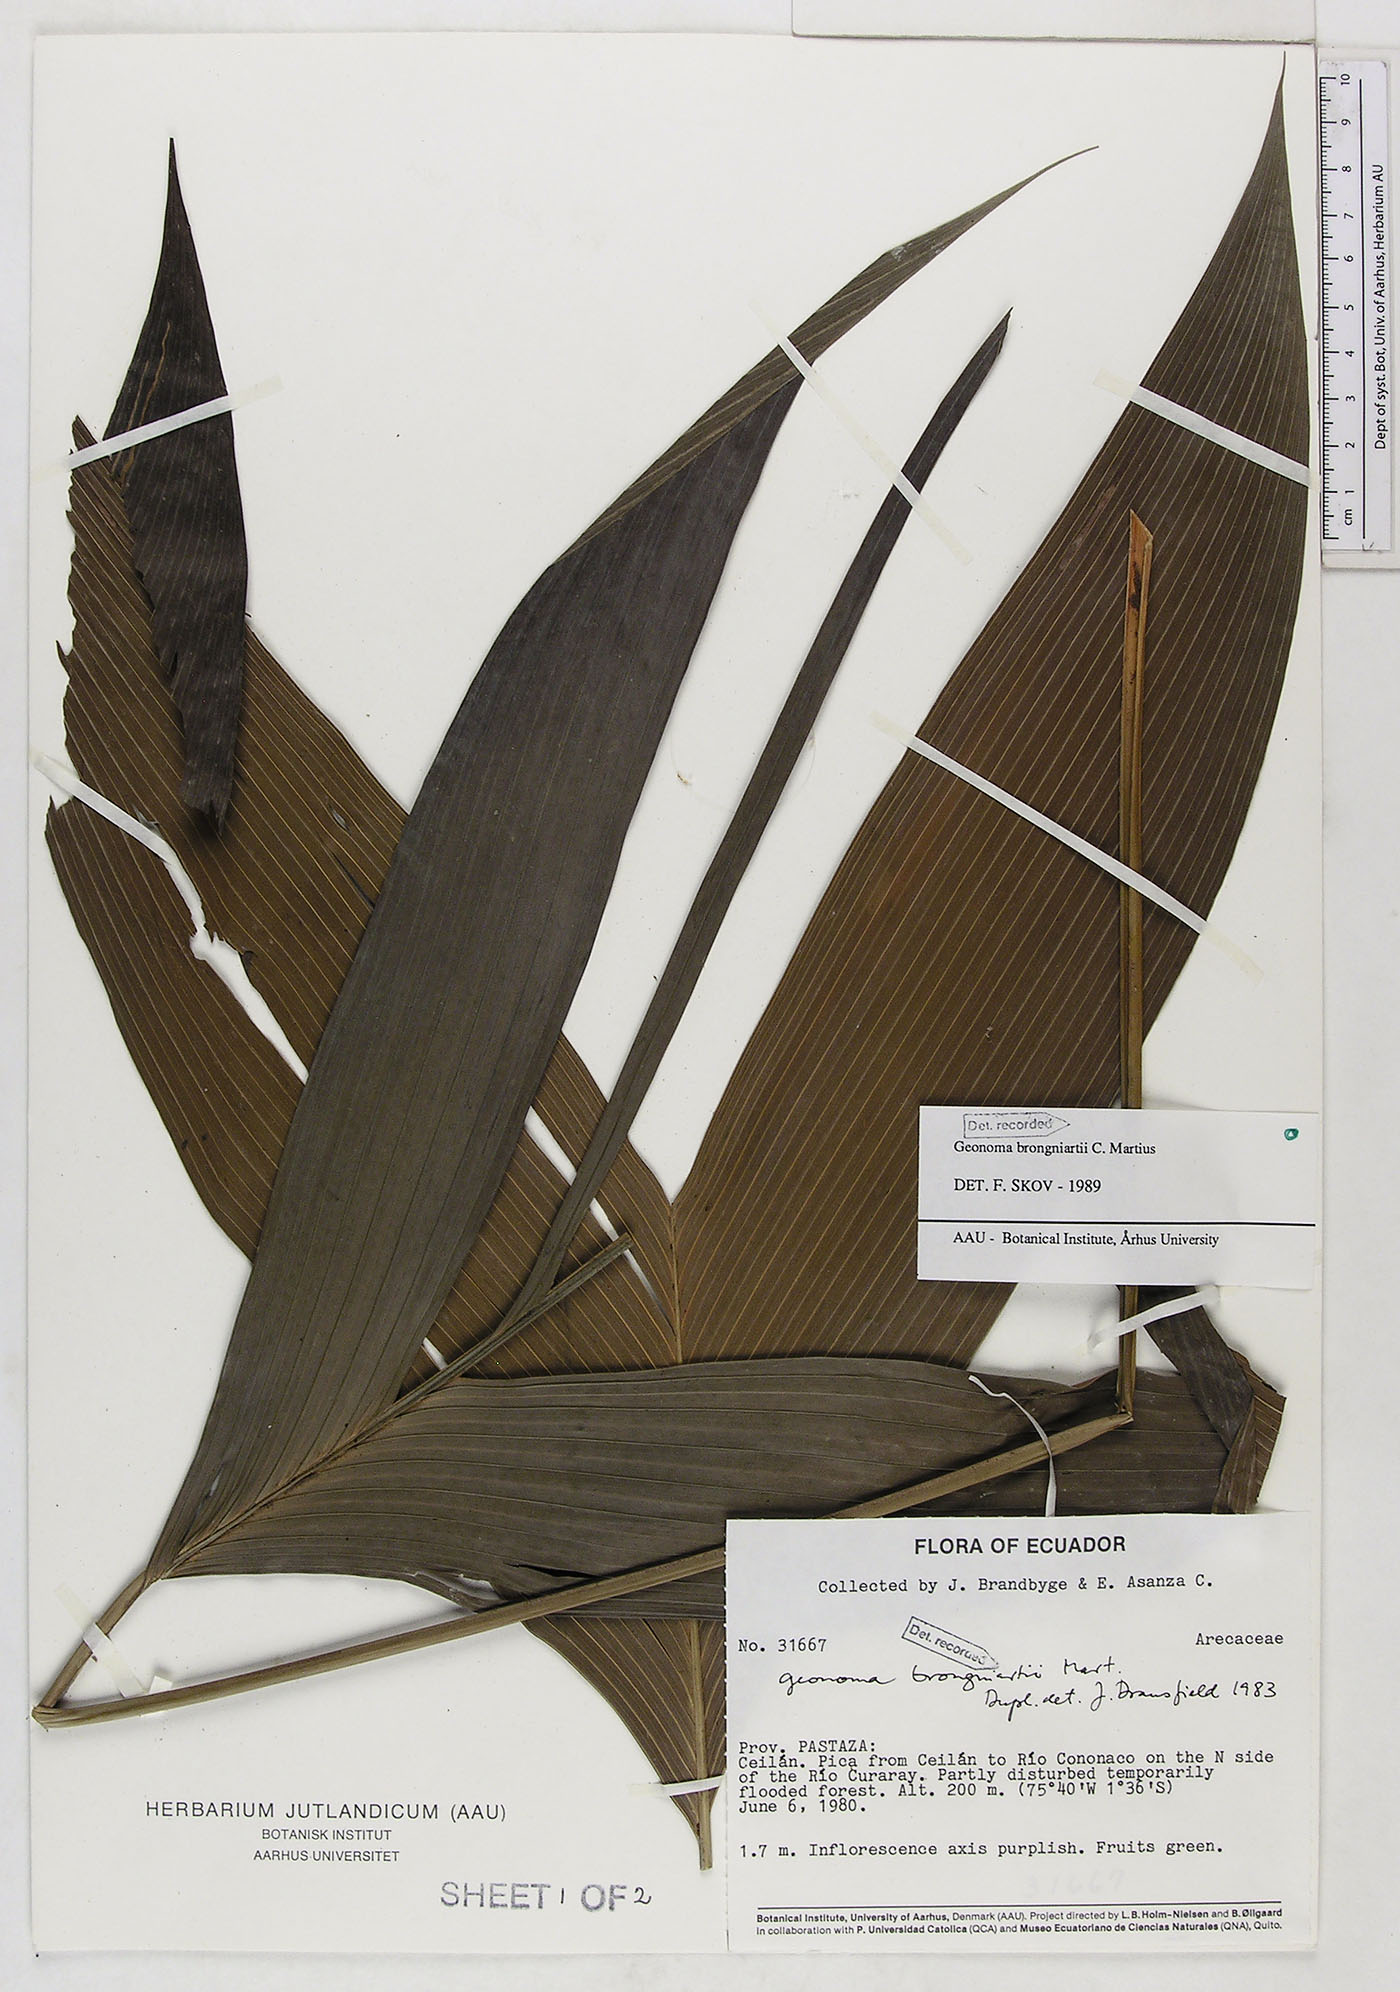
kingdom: Plantae
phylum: Tracheophyta
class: Liliopsida
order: Arecales
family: Arecaceae
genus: Geonoma
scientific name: Geonoma brongniartii
